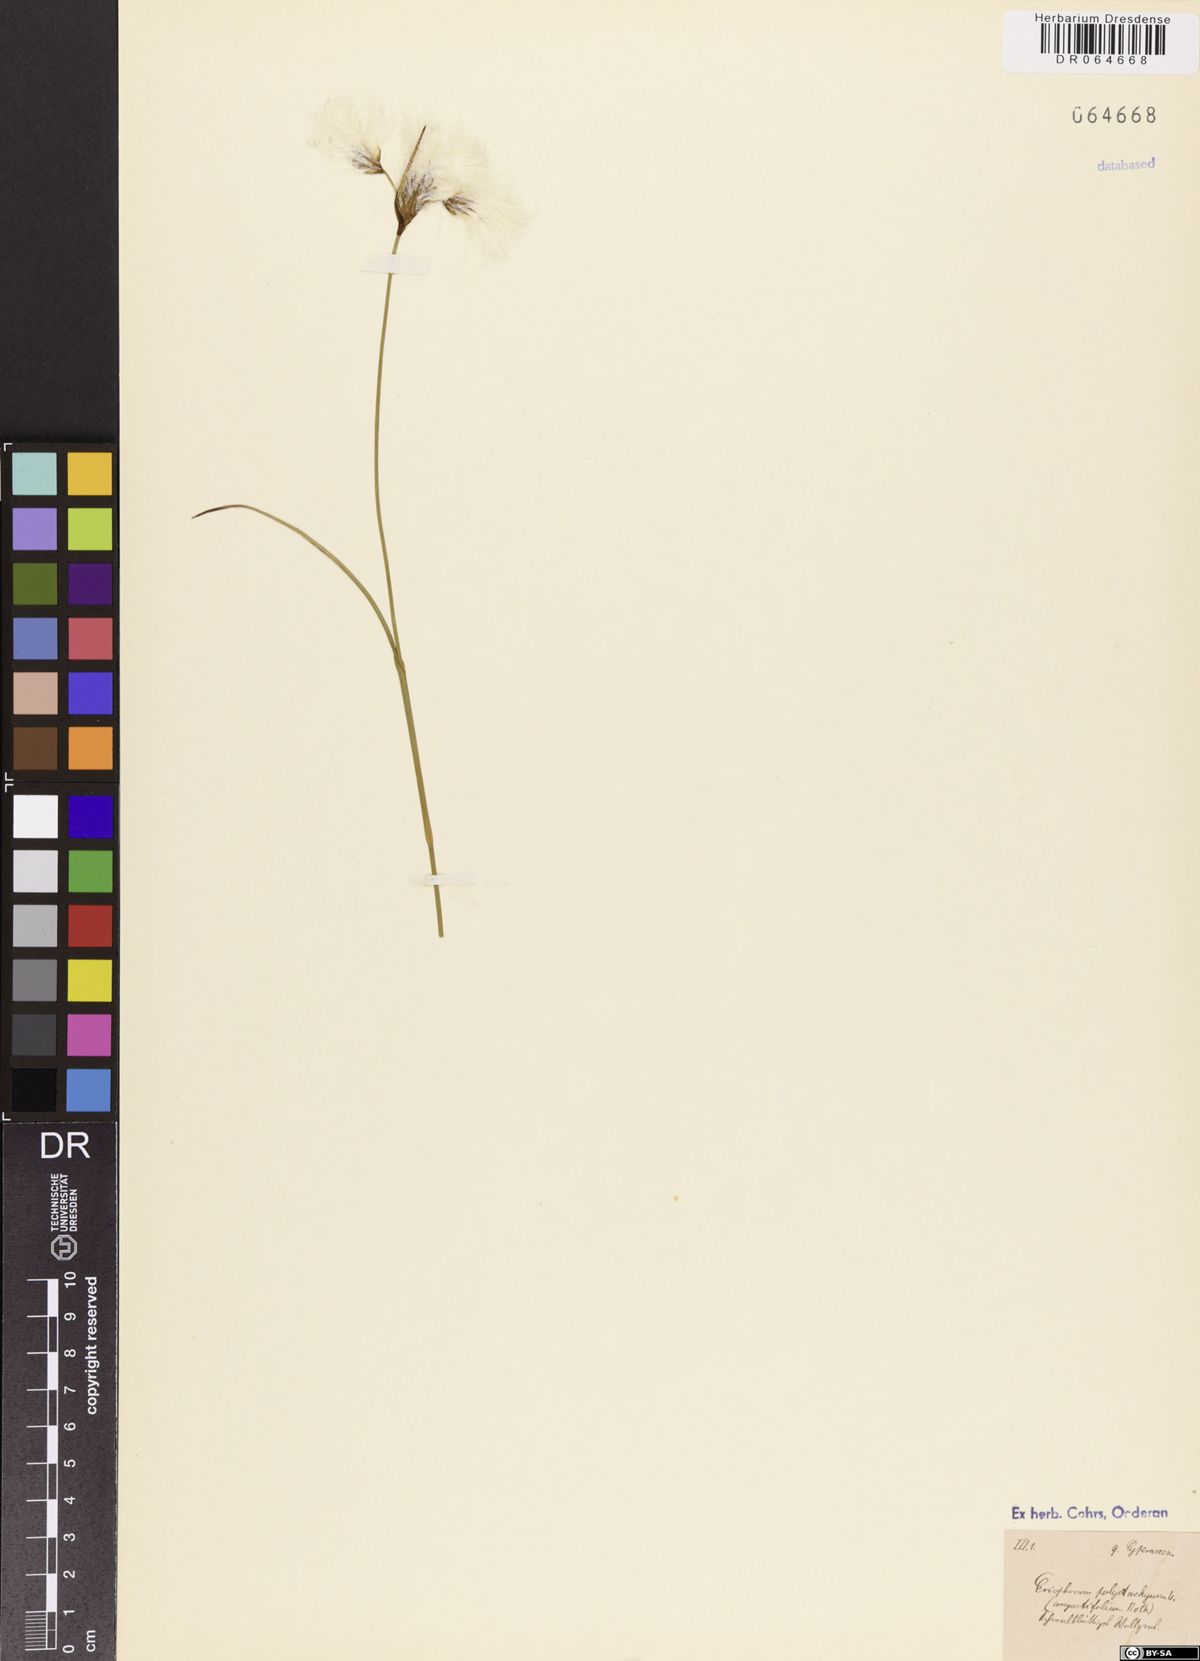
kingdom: Plantae
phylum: Tracheophyta
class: Liliopsida
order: Poales
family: Cyperaceae
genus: Eriophorum
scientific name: Eriophorum angustifolium
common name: Common cottongrass
